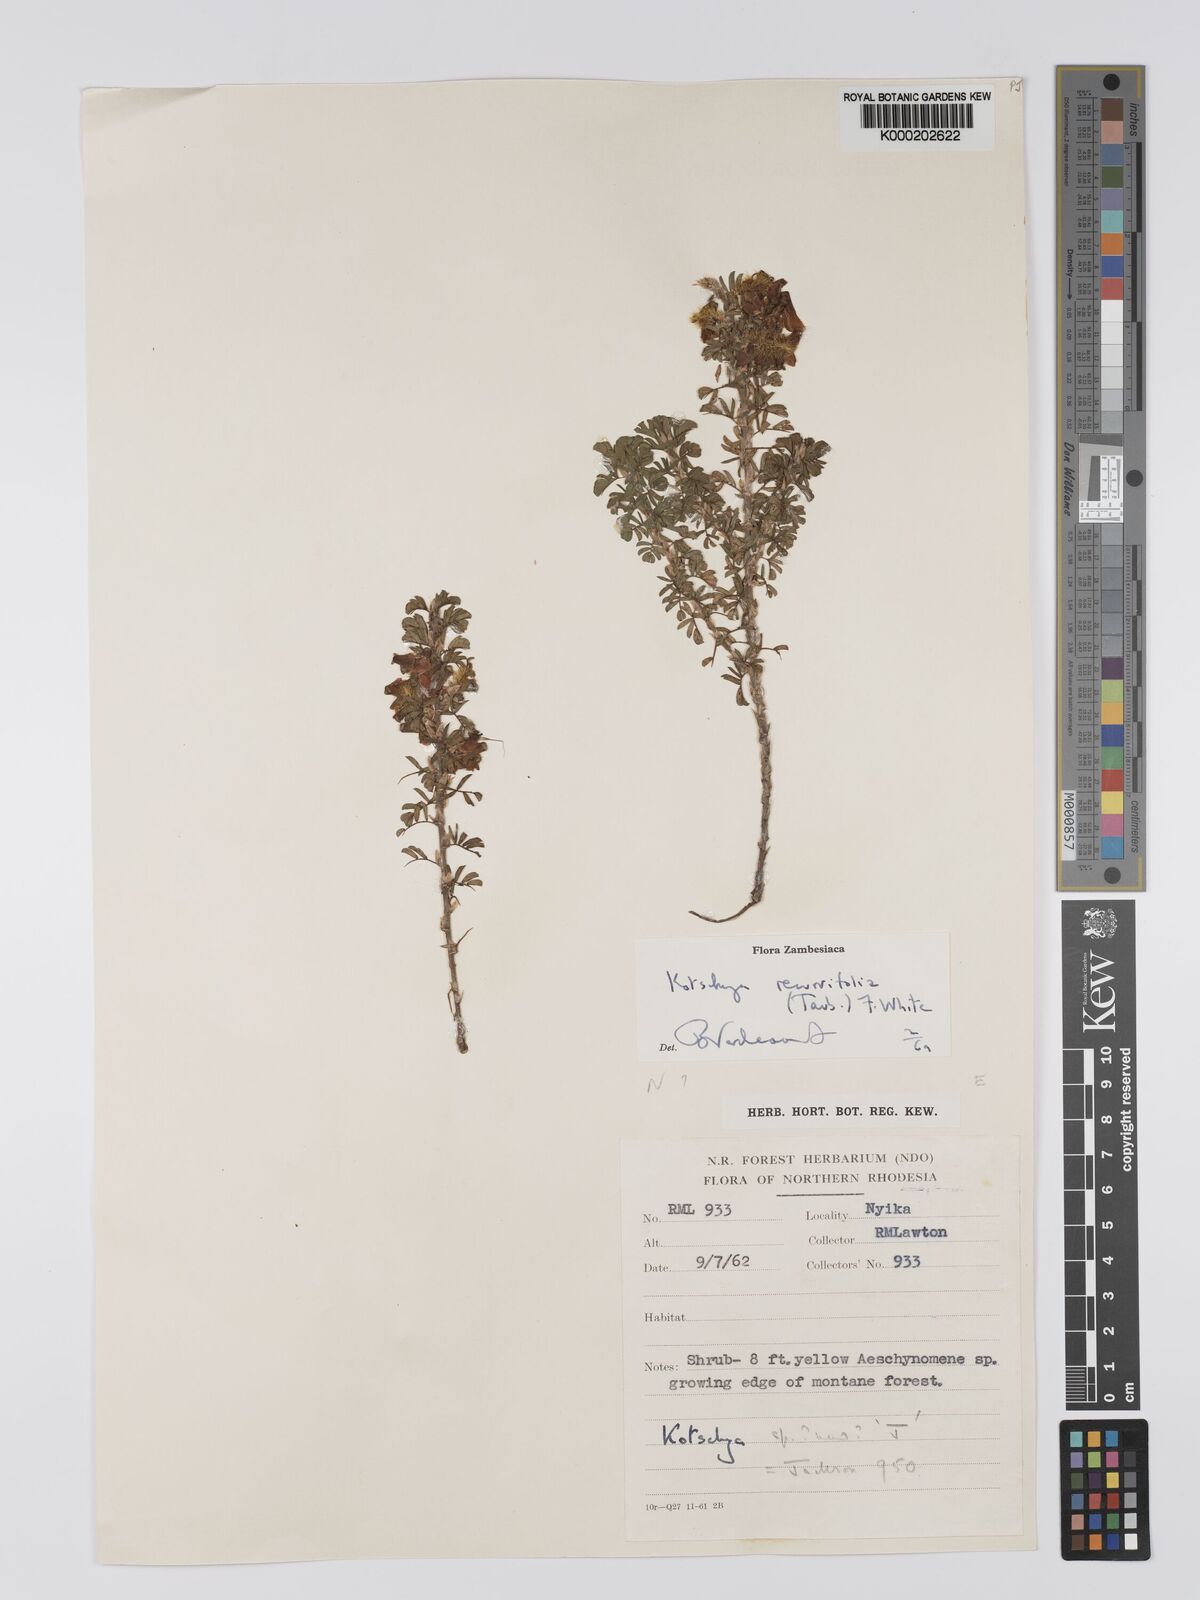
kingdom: Plantae
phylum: Tracheophyta
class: Magnoliopsida
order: Fabales
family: Fabaceae
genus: Kotschya
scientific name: Kotschya recurvifolia
